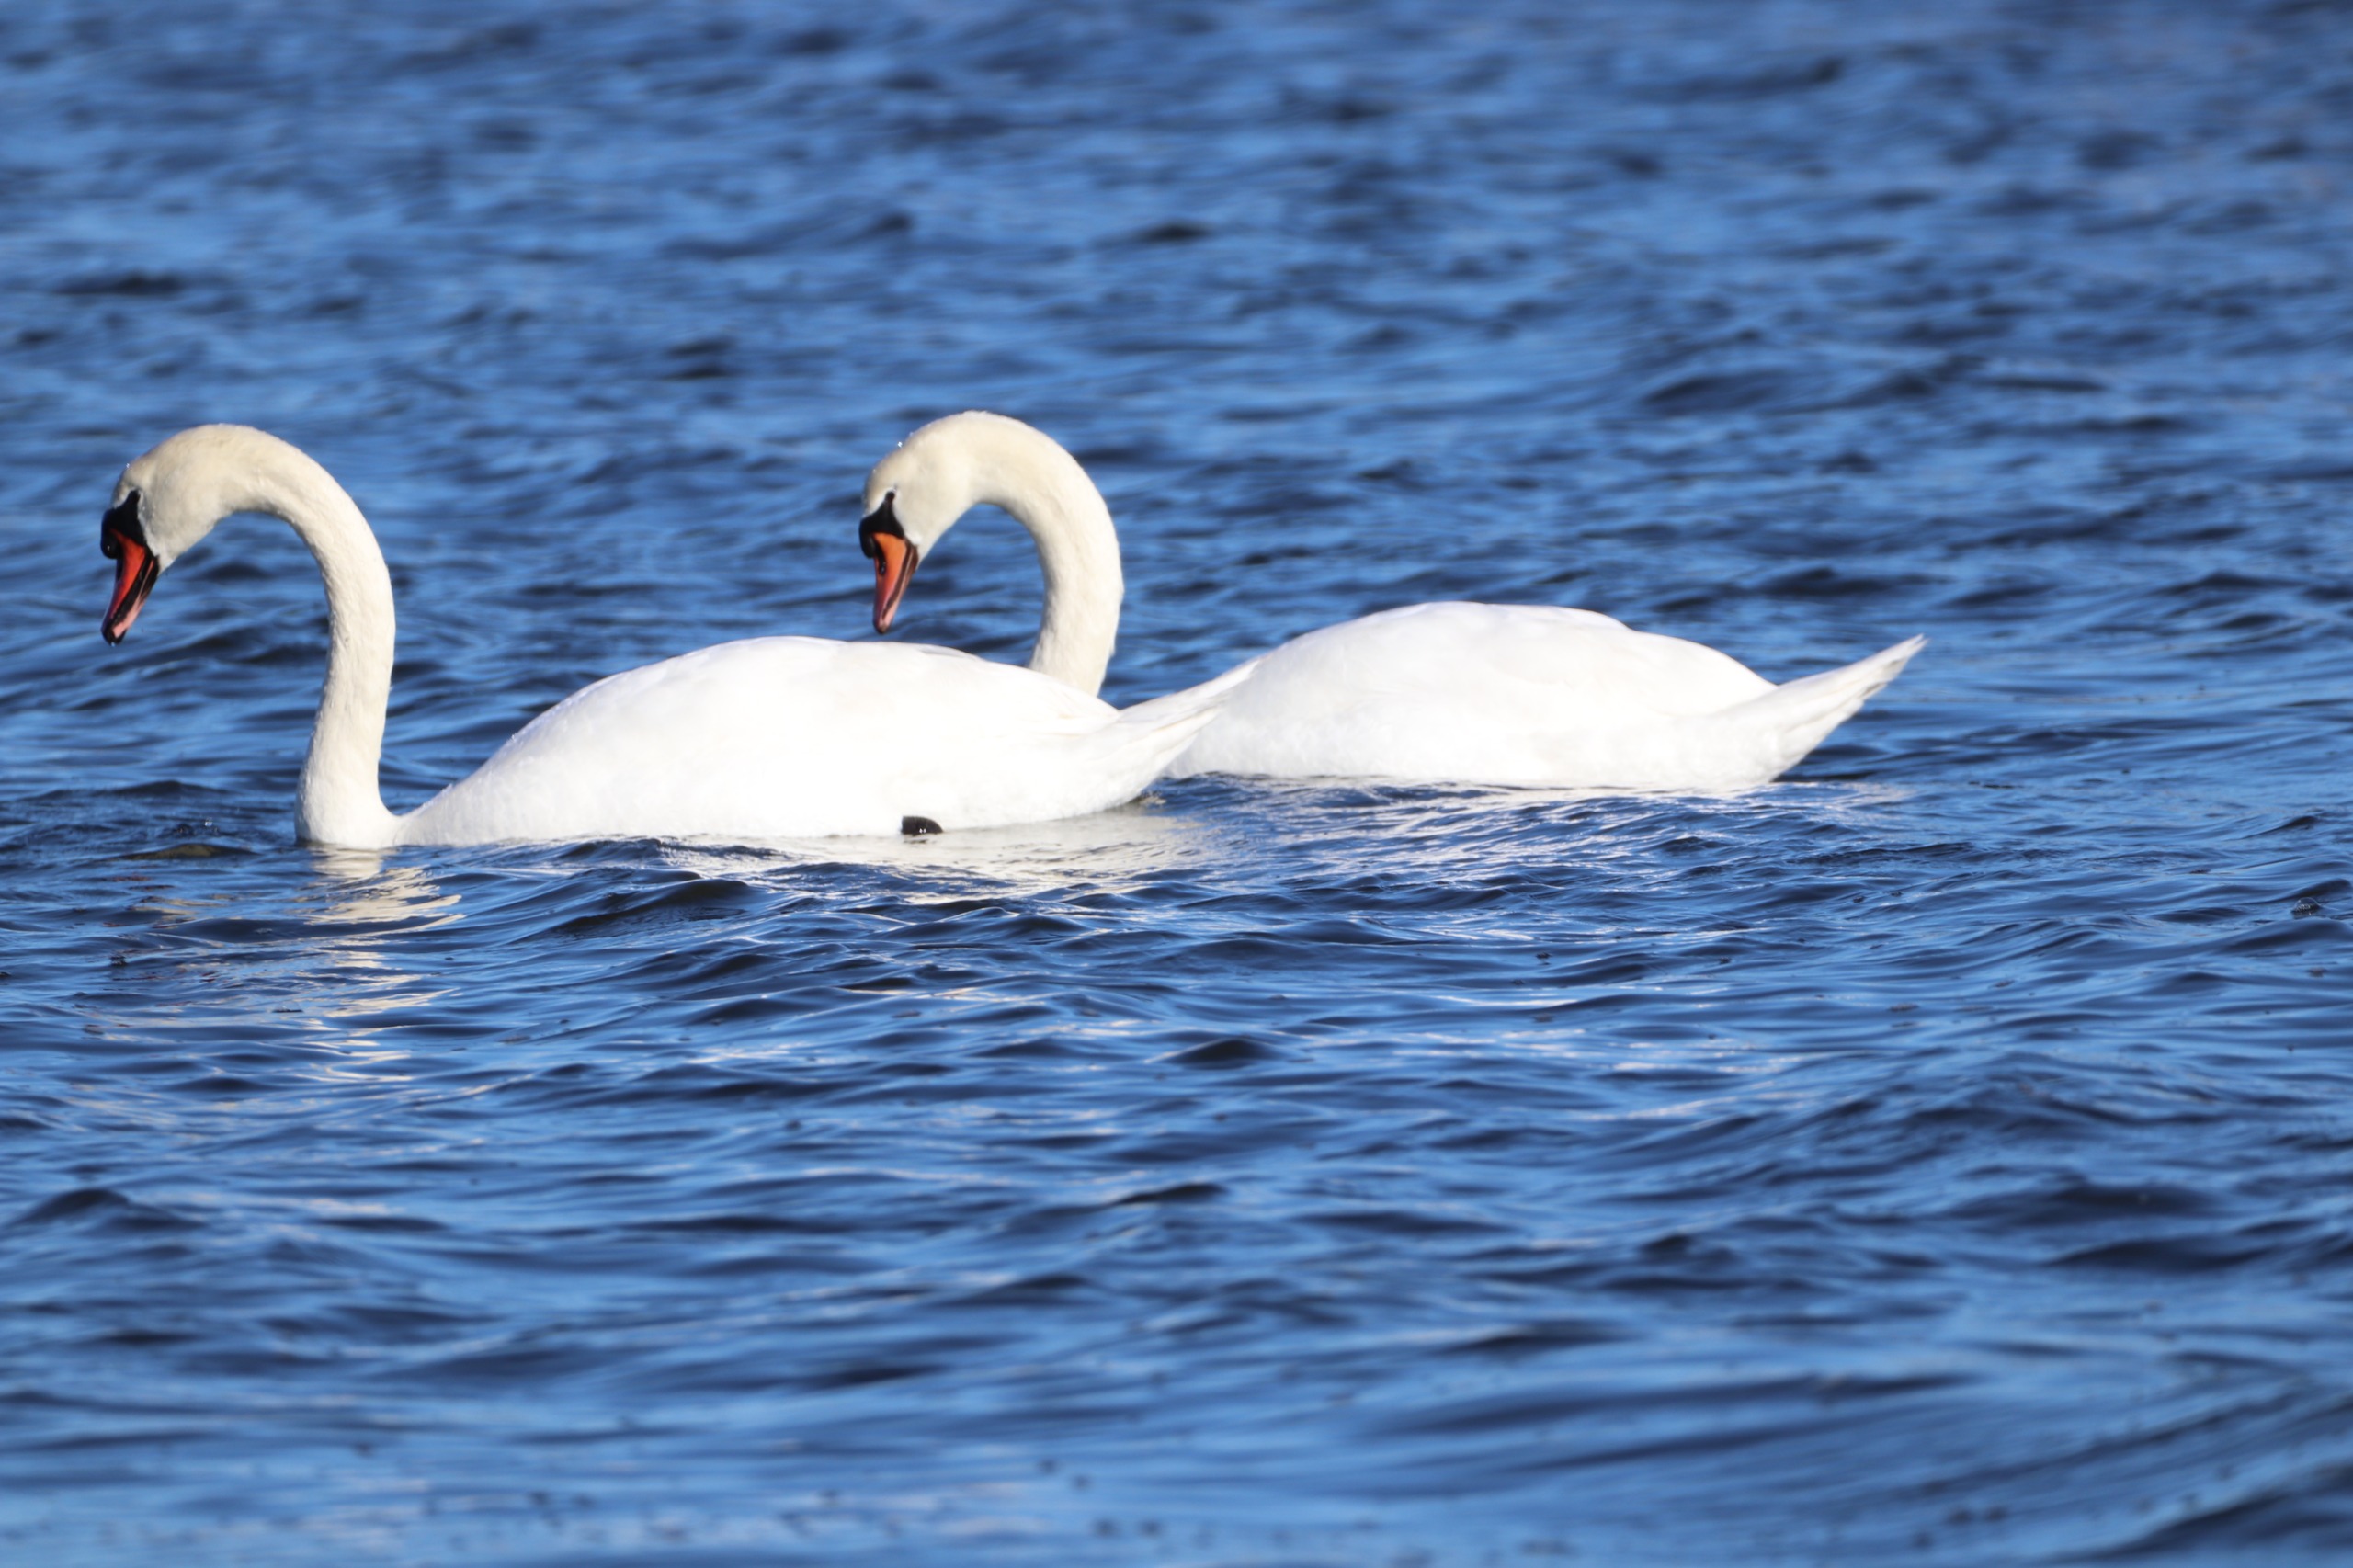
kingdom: Animalia
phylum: Chordata
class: Aves
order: Anseriformes
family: Anatidae
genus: Cygnus
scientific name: Cygnus olor
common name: Knopsvane
